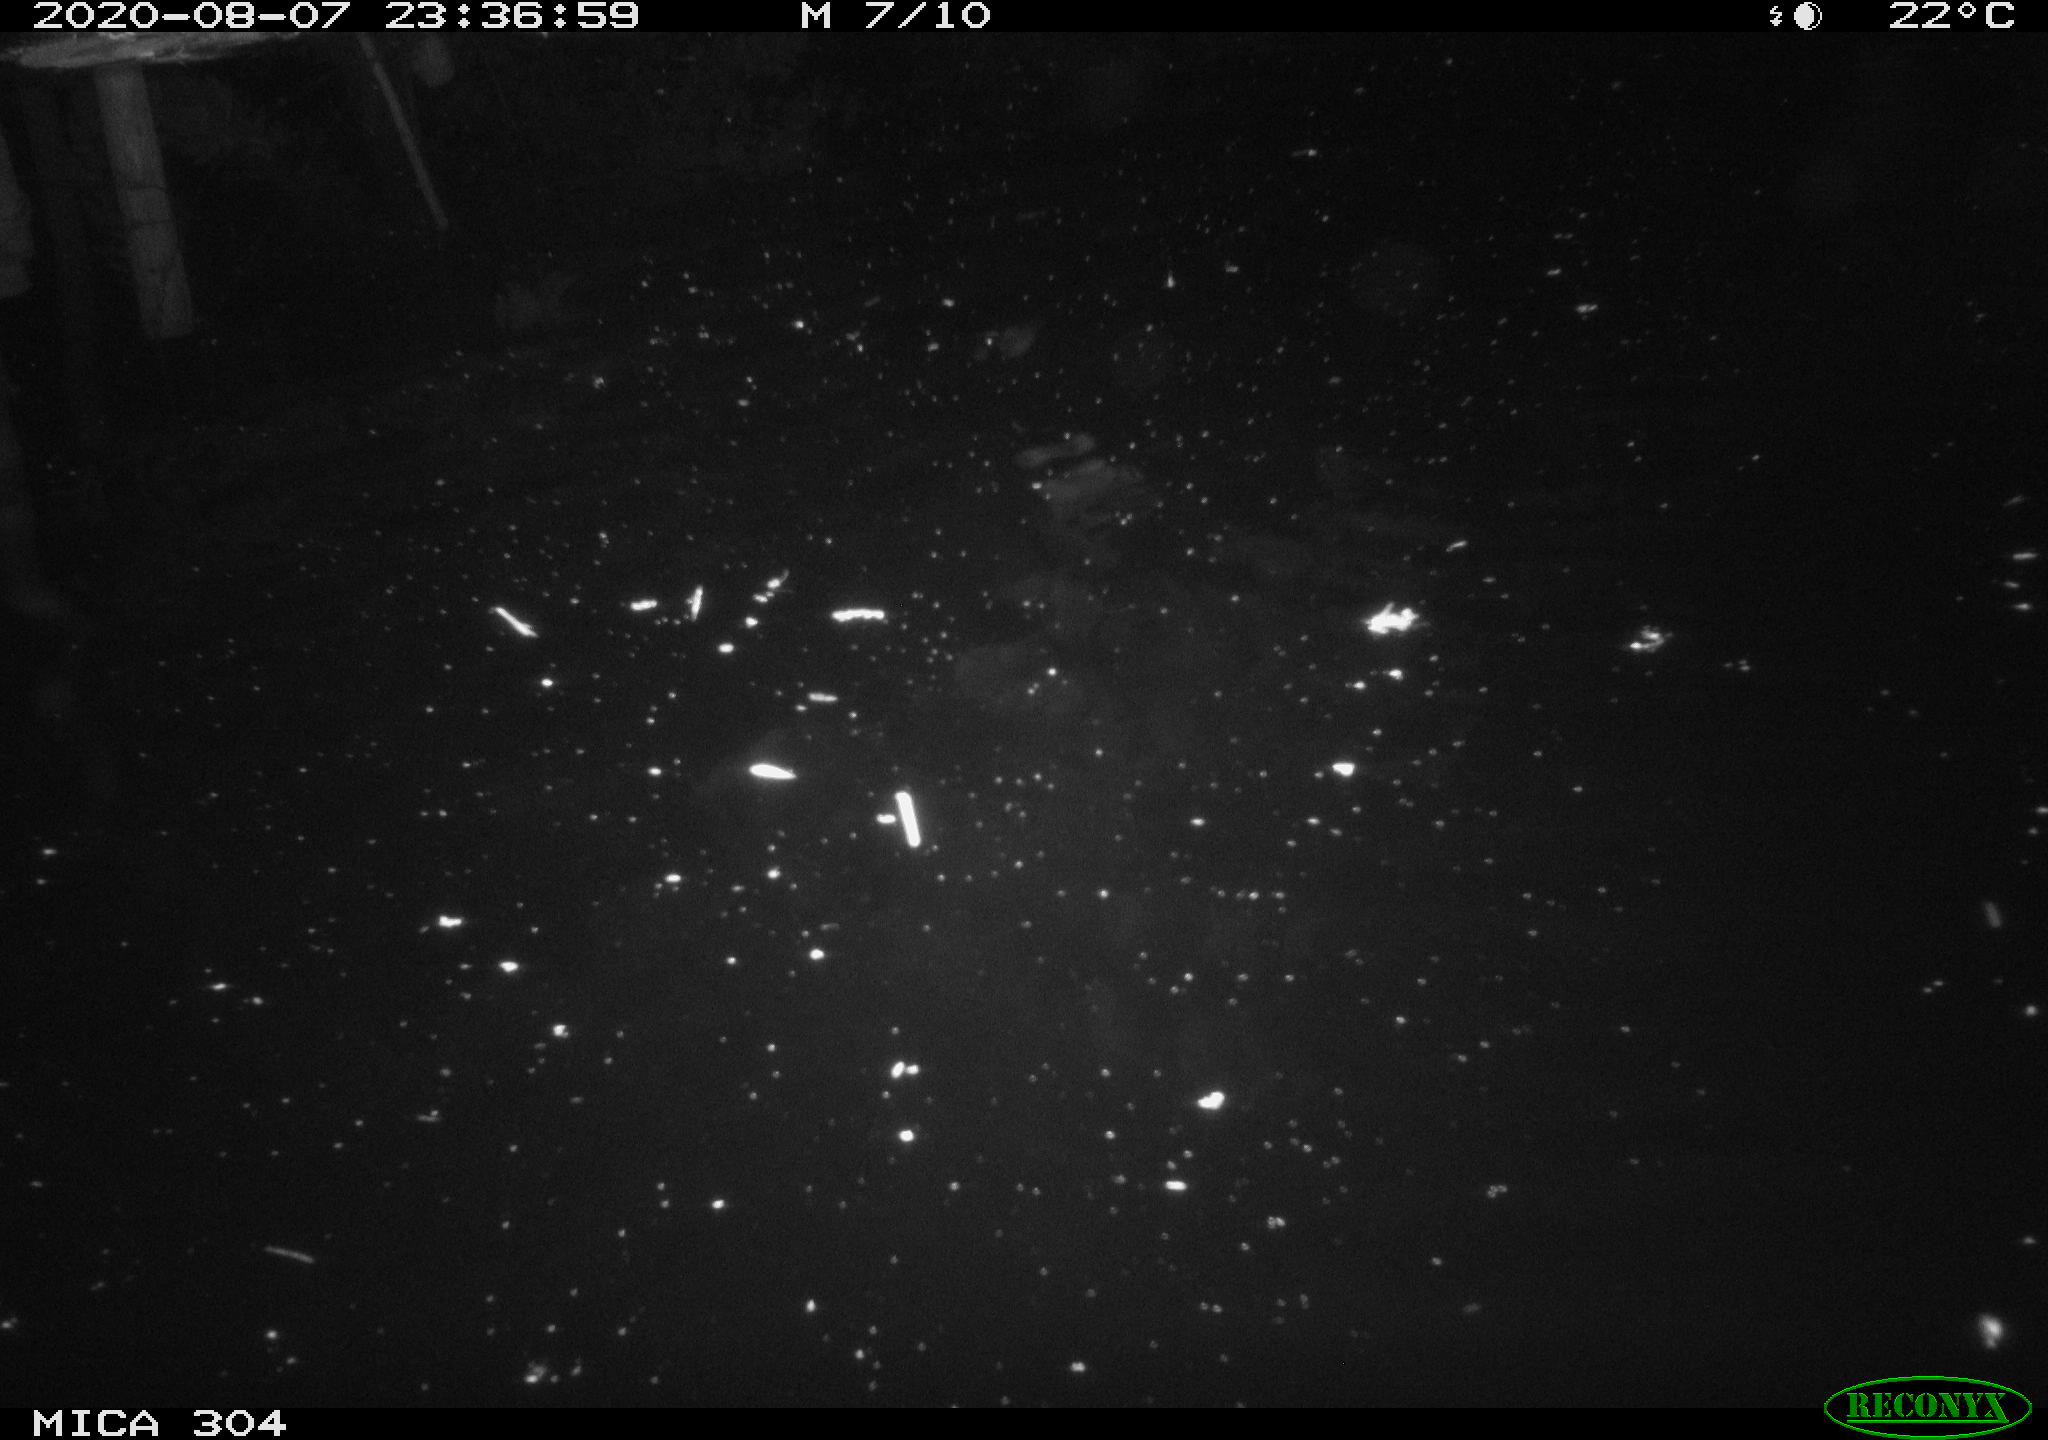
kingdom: Animalia
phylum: Chordata
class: Mammalia
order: Rodentia
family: Cricetidae
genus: Ondatra
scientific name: Ondatra zibethicus
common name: Muskrat
